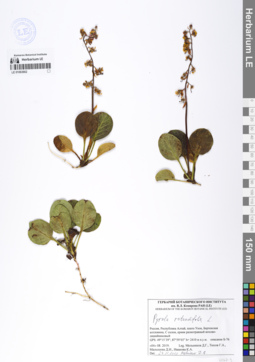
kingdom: Plantae
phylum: Tracheophyta
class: Magnoliopsida
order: Ericales
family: Ericaceae
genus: Pyrola
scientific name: Pyrola rotundifolia
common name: Round-leaved wintergreen
